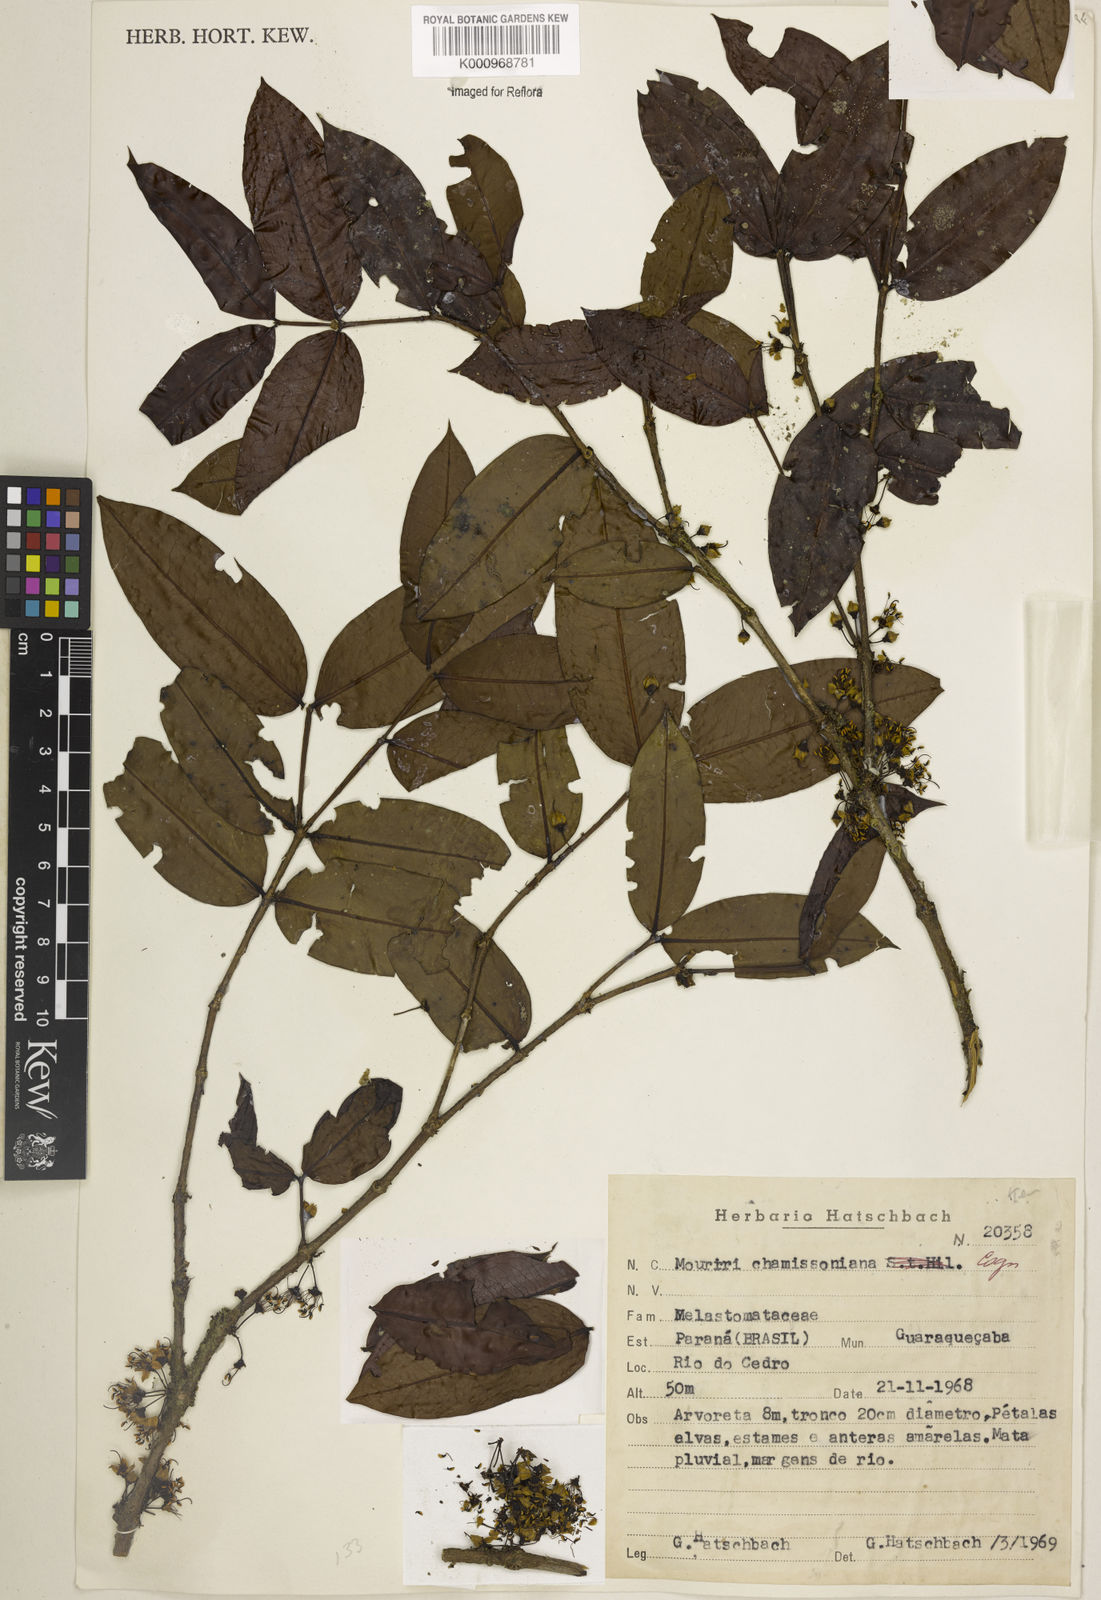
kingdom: Plantae
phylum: Tracheophyta
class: Magnoliopsida
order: Myrtales
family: Melastomataceae
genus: Mouriri
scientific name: Mouriri chamissoana
